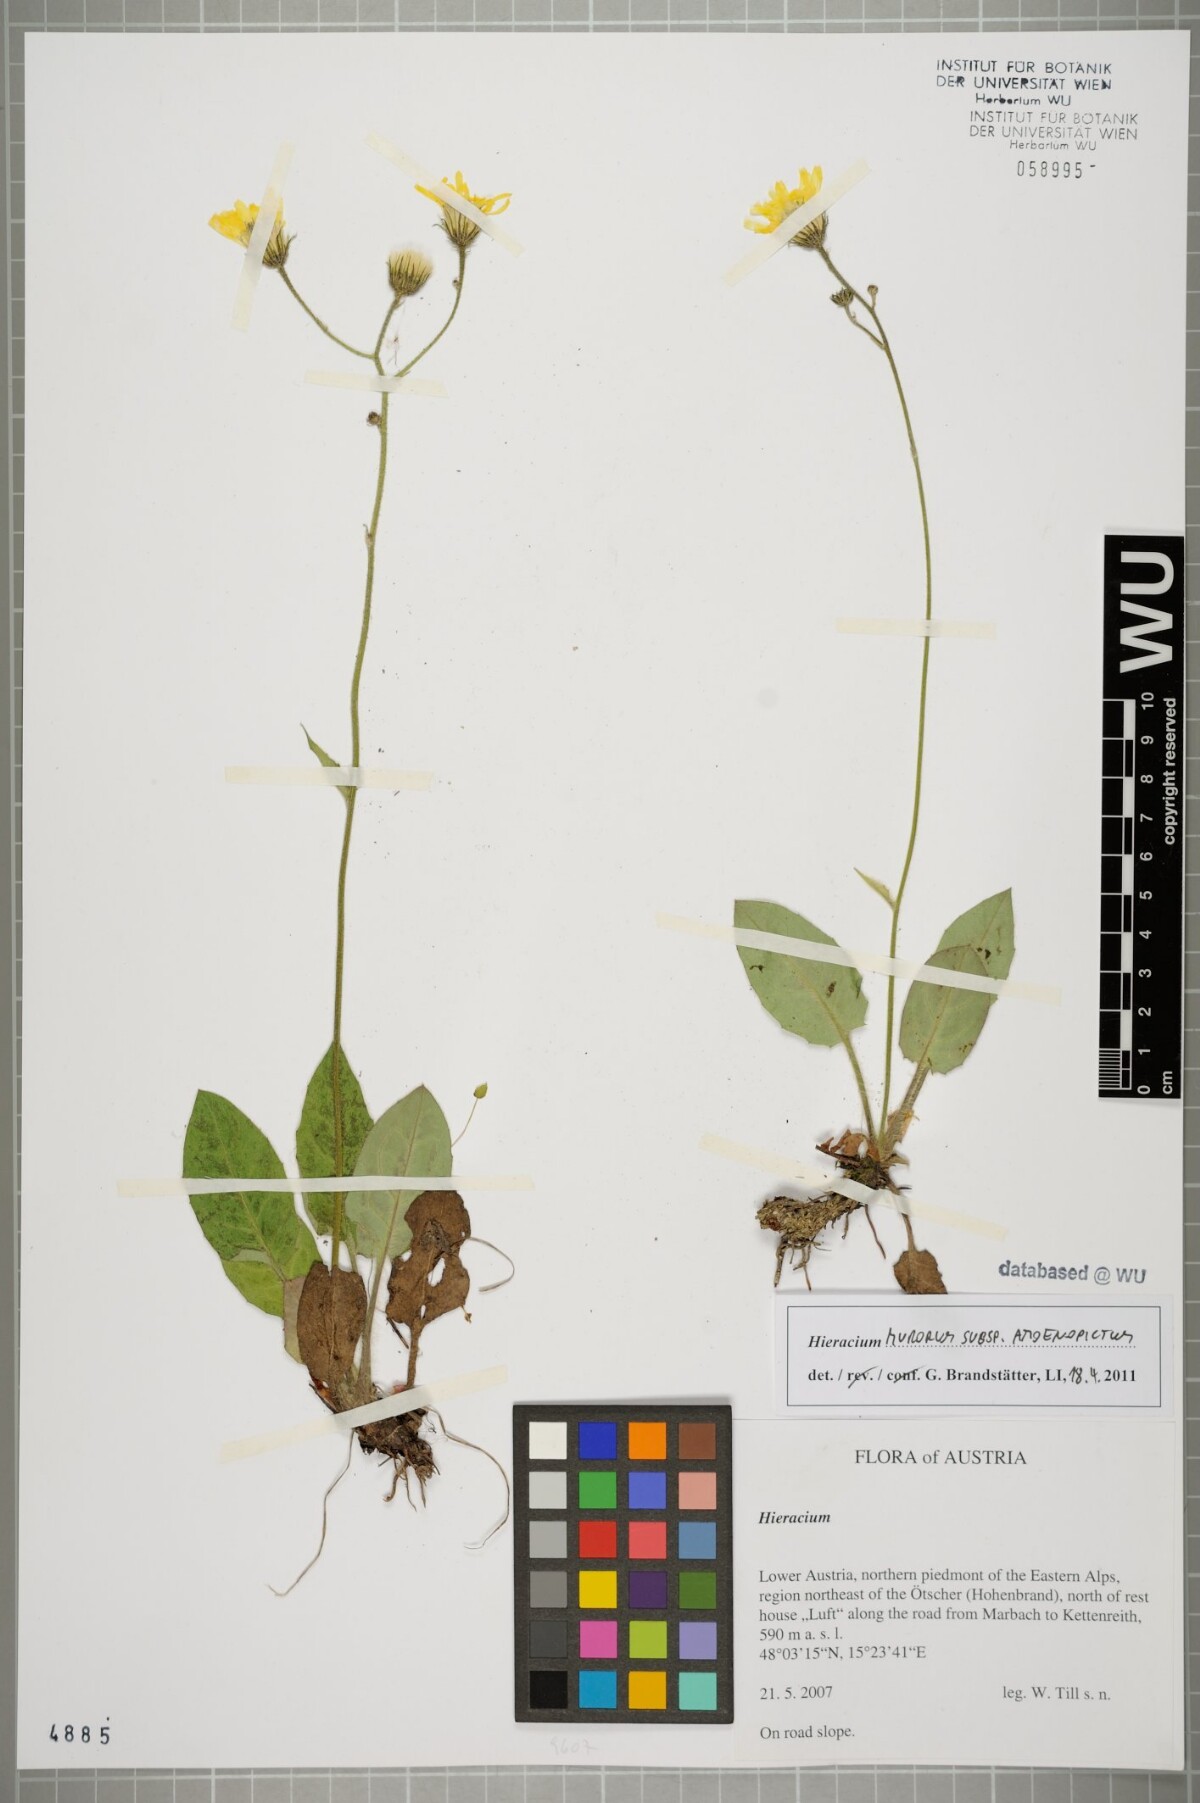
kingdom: Plantae
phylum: Tracheophyta
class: Magnoliopsida
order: Asterales
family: Asteraceae
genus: Hieracium
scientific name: Hieracium murorum
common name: Wall hawkweed
